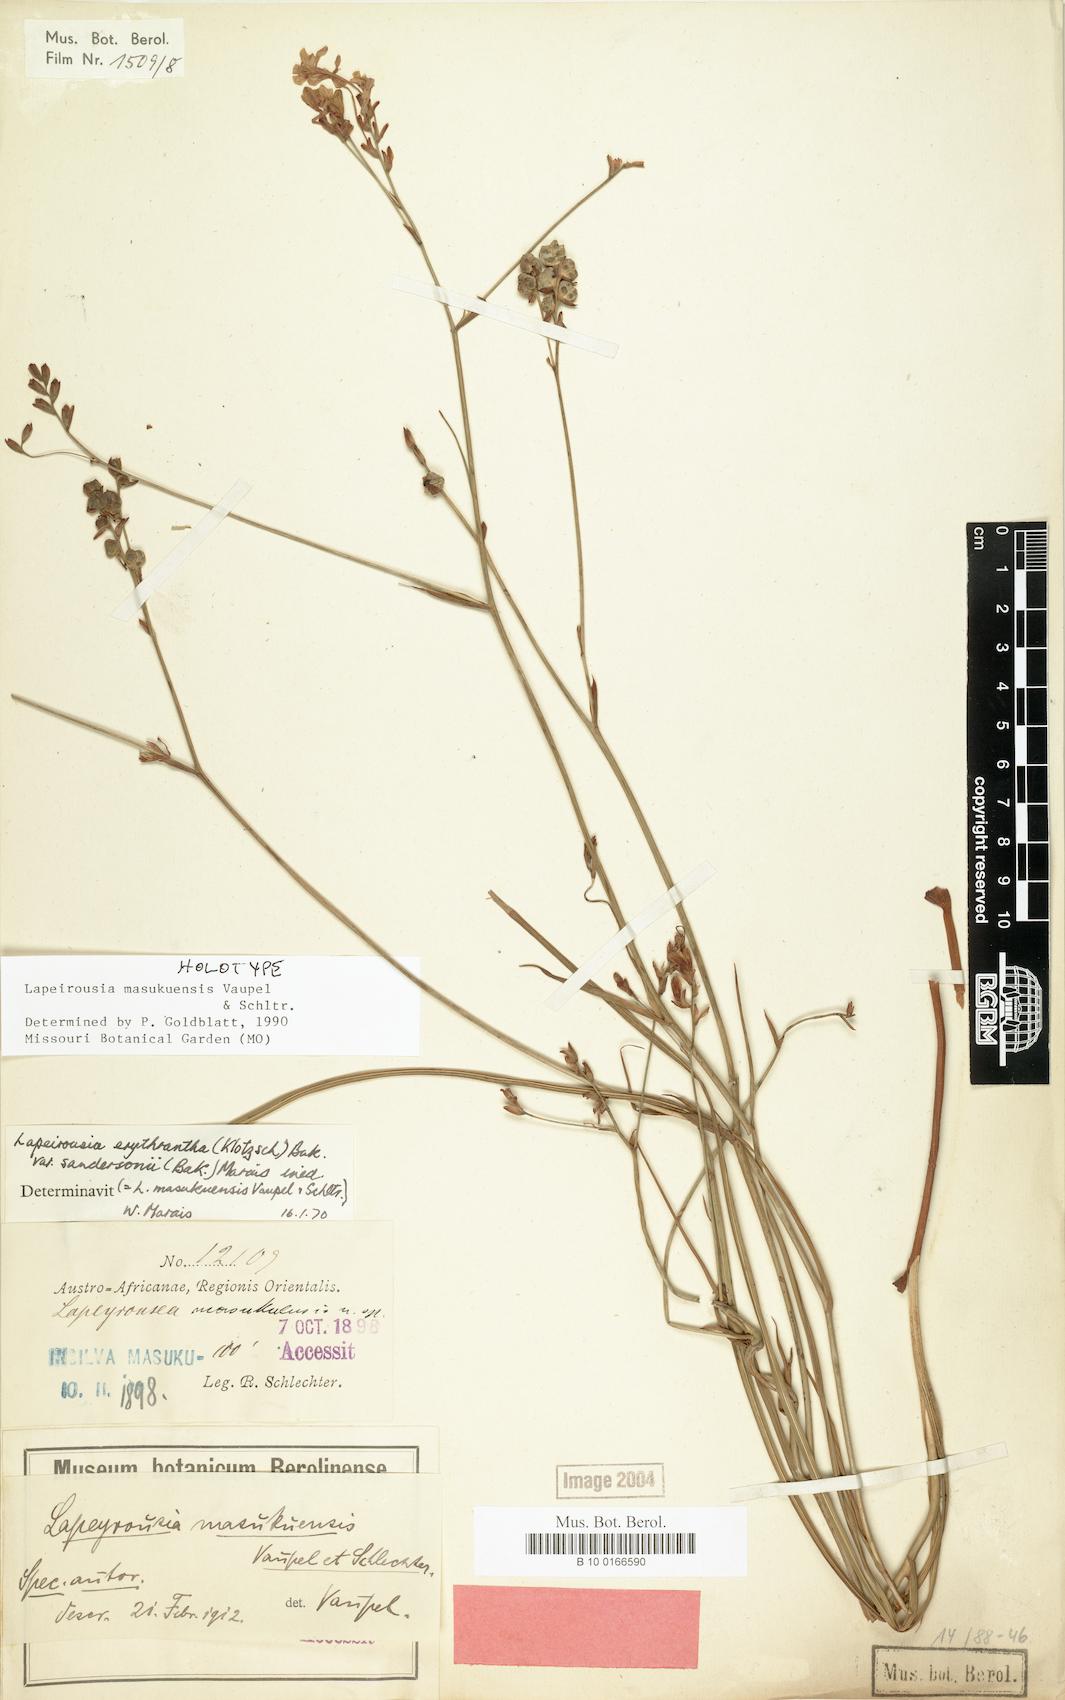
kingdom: Plantae
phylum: Tracheophyta
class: Liliopsida
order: Asparagales
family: Iridaceae
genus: Afrosolen
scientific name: Afrosolen masukuensis
